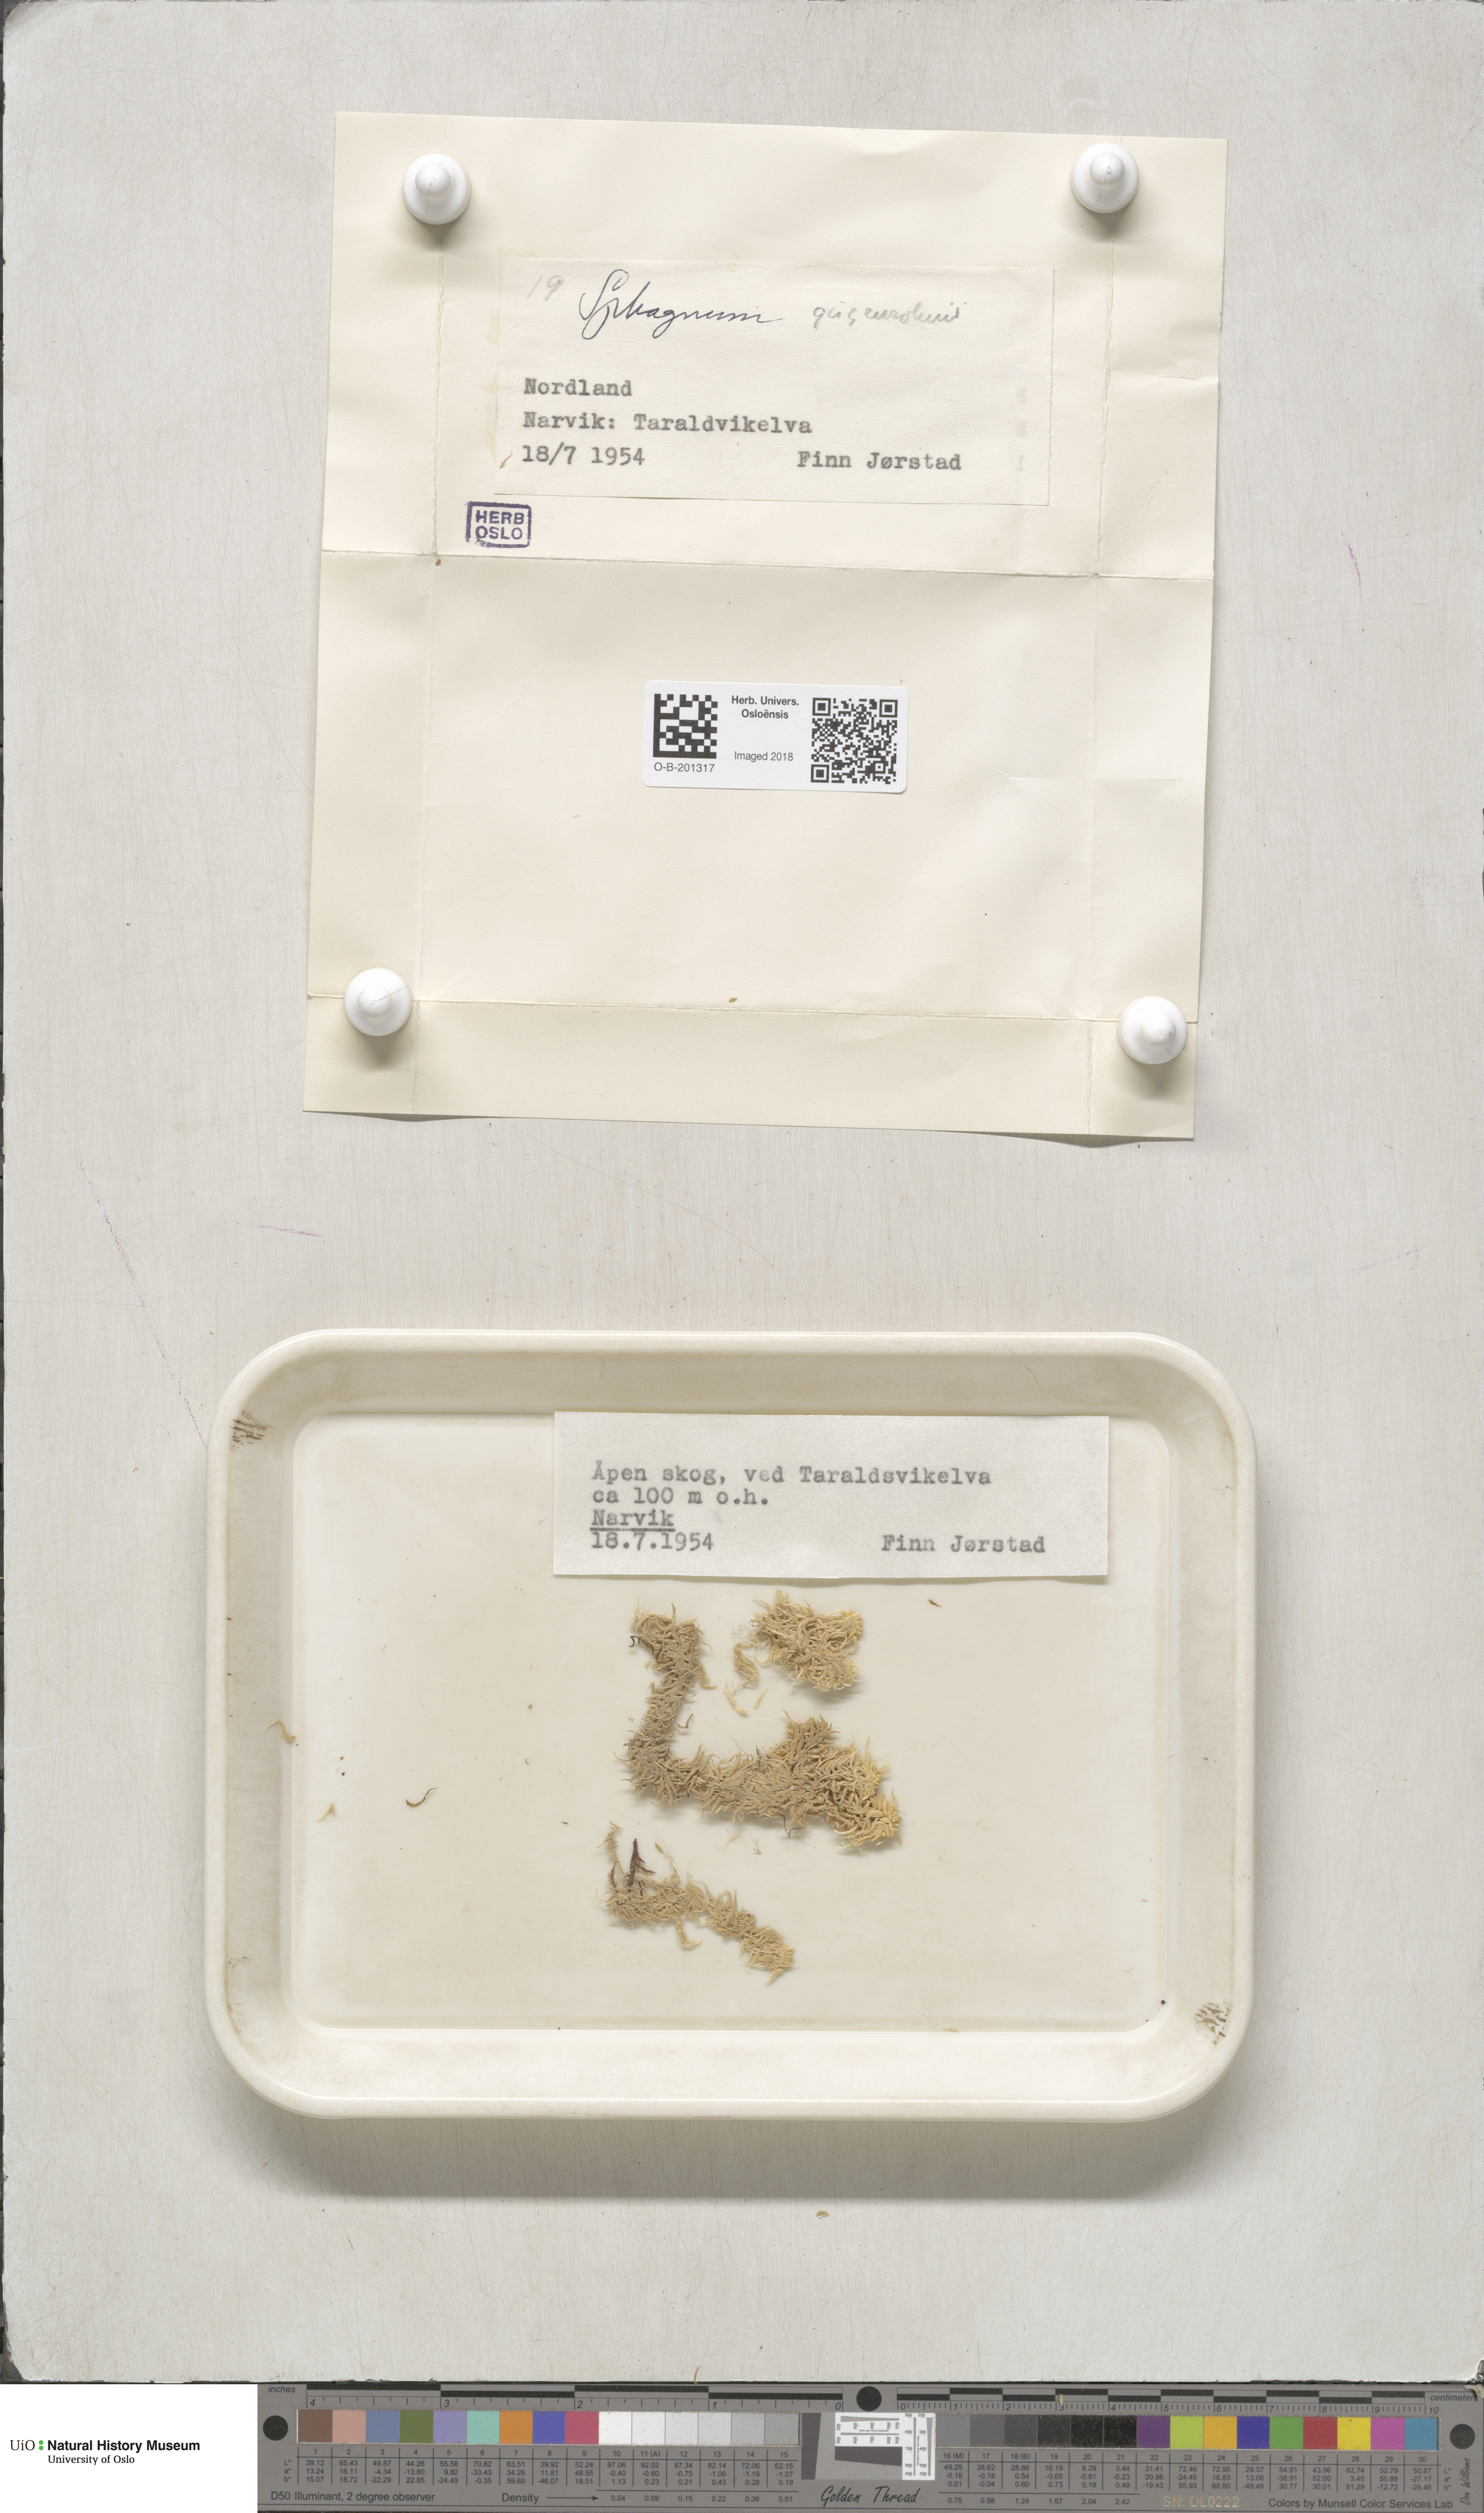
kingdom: Plantae
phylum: Bryophyta
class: Sphagnopsida
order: Sphagnales
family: Sphagnaceae
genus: Sphagnum
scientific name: Sphagnum girgensohnii
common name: Girgensohn's peat moss
